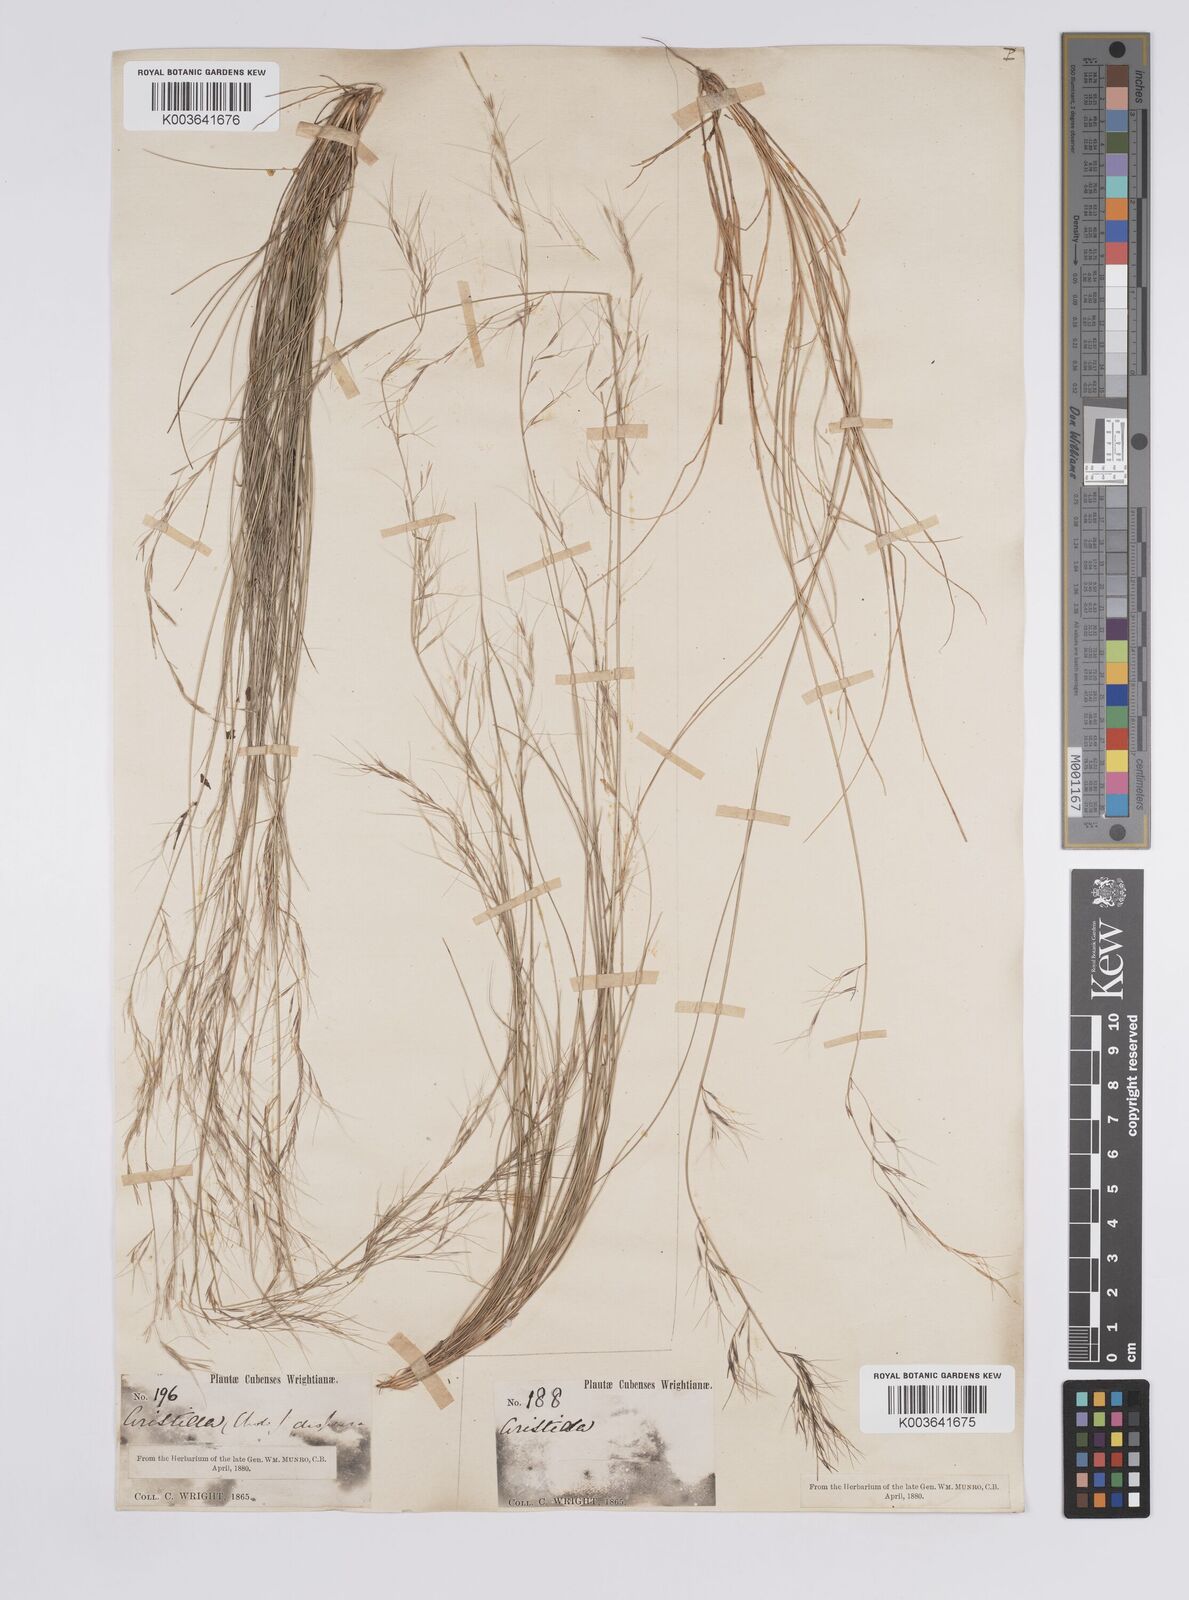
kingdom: Plantae
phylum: Tracheophyta
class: Liliopsida
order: Poales
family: Poaceae
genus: Aristida
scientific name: Aristida refracta
